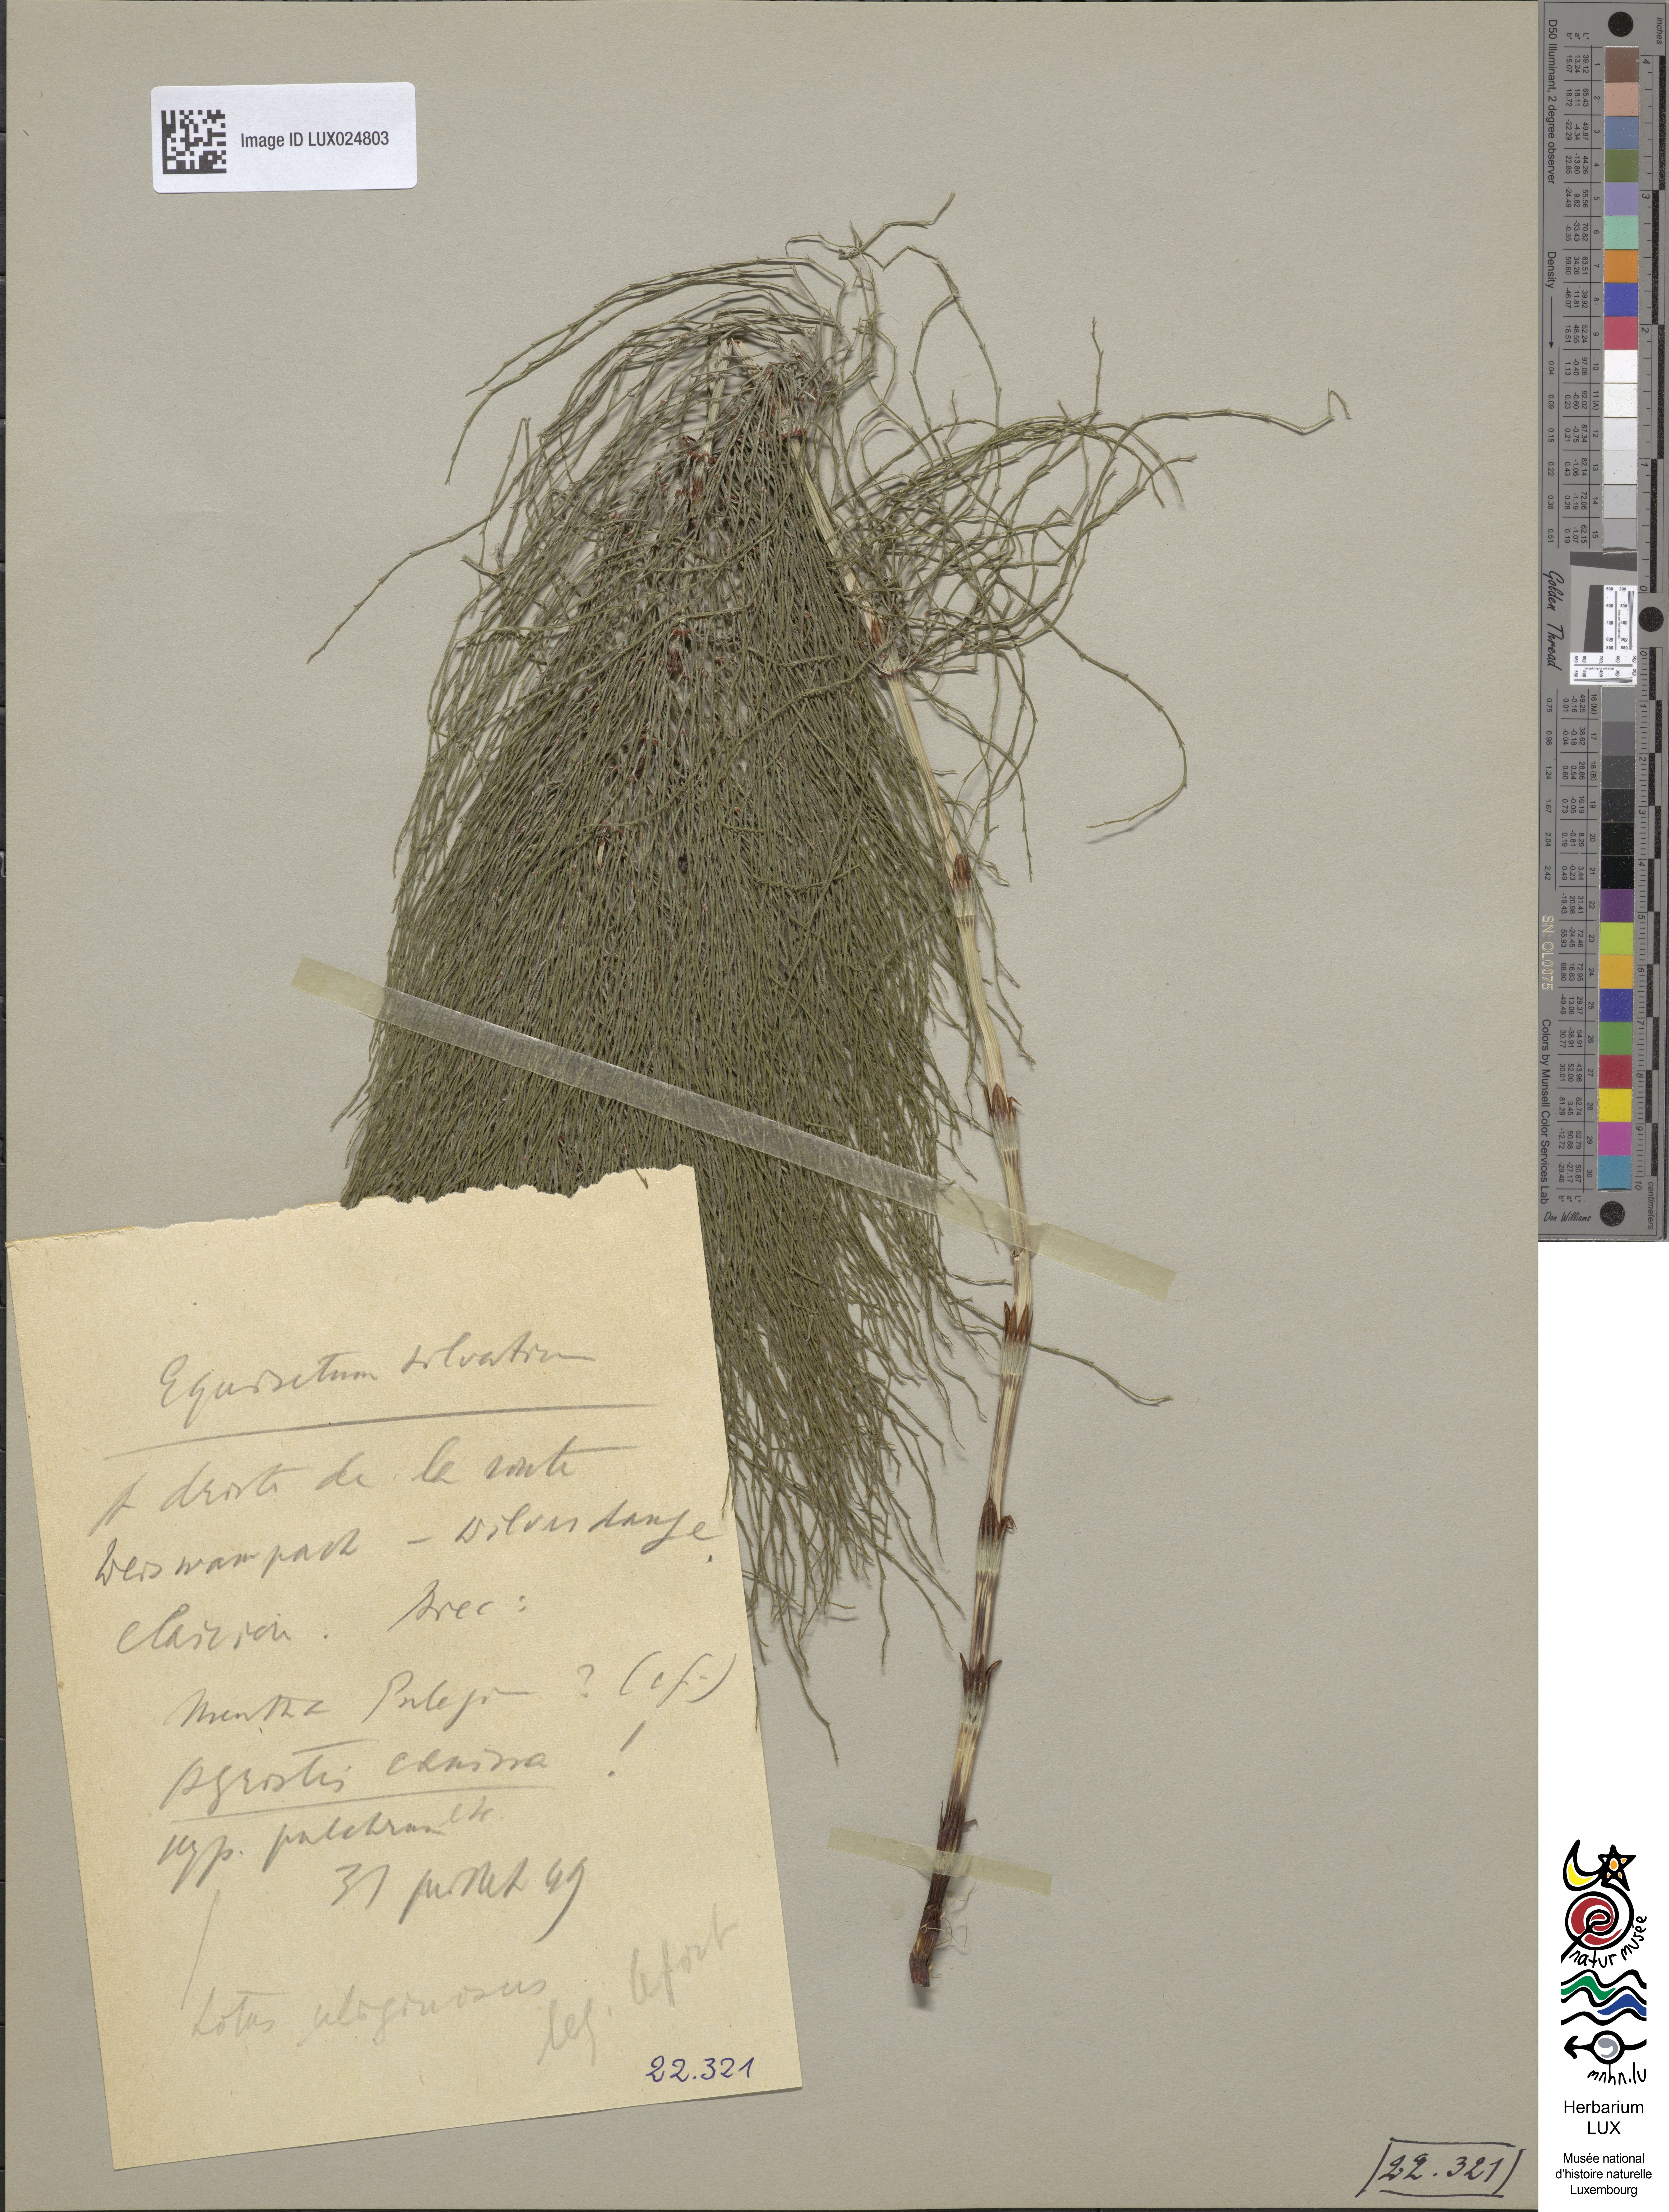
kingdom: Plantae
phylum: Tracheophyta
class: Polypodiopsida
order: Equisetales
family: Equisetaceae
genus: Equisetum
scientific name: Equisetum sylvaticum
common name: Wood horsetail
